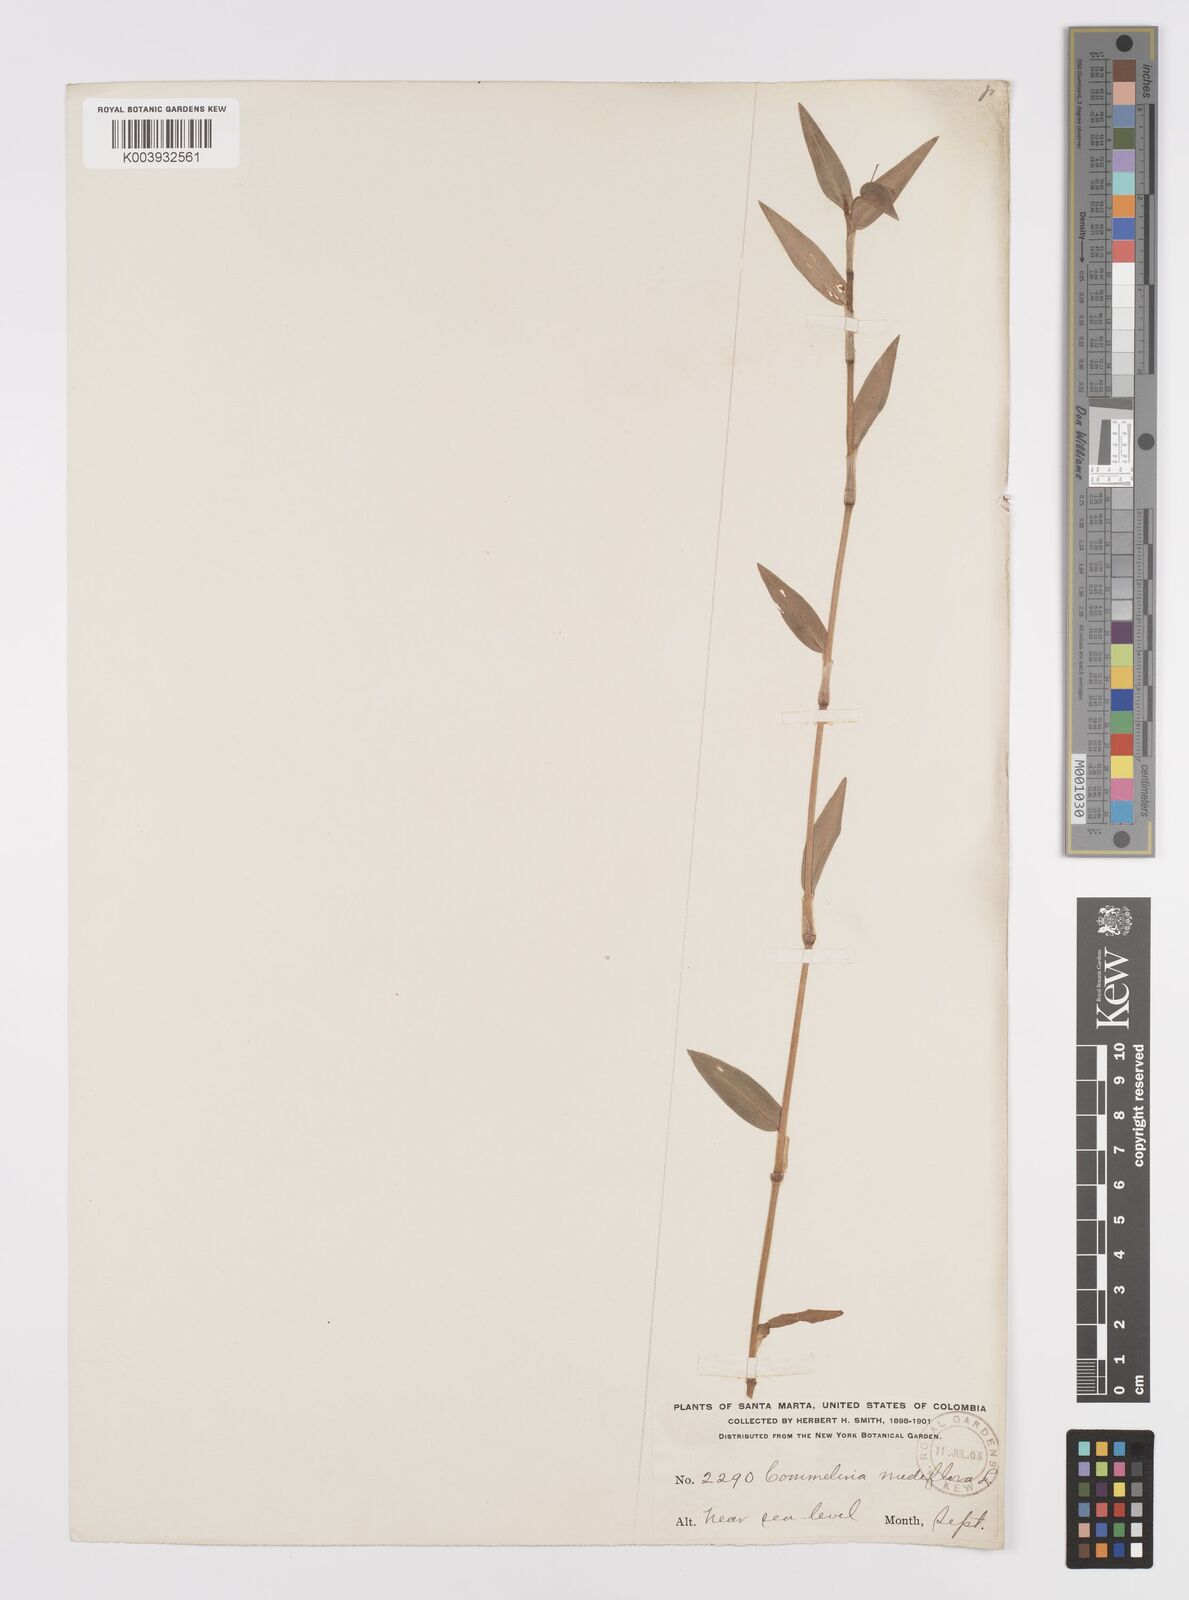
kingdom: Plantae
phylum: Tracheophyta
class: Liliopsida
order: Commelinales
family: Commelinaceae
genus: Commelina
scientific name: Commelina diffusa
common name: Climbing dayflower
